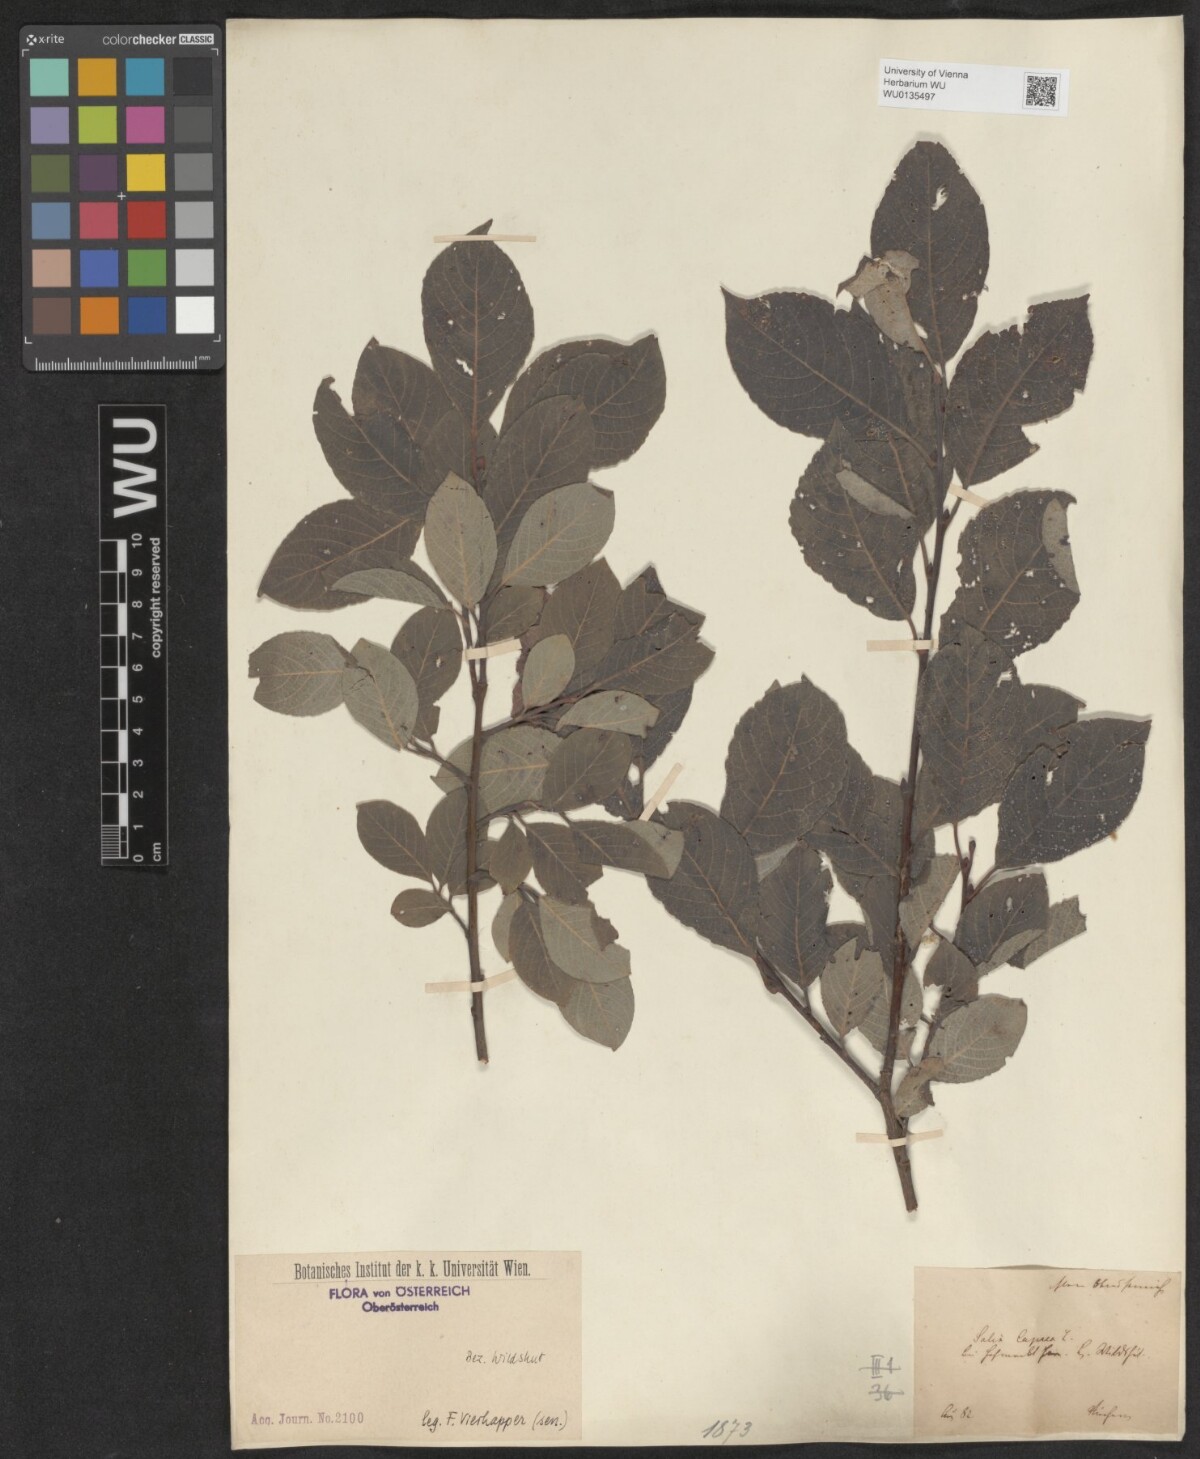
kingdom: Plantae
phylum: Tracheophyta
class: Magnoliopsida
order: Malpighiales
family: Salicaceae
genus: Salix
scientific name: Salix caprea
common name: Goat willow
